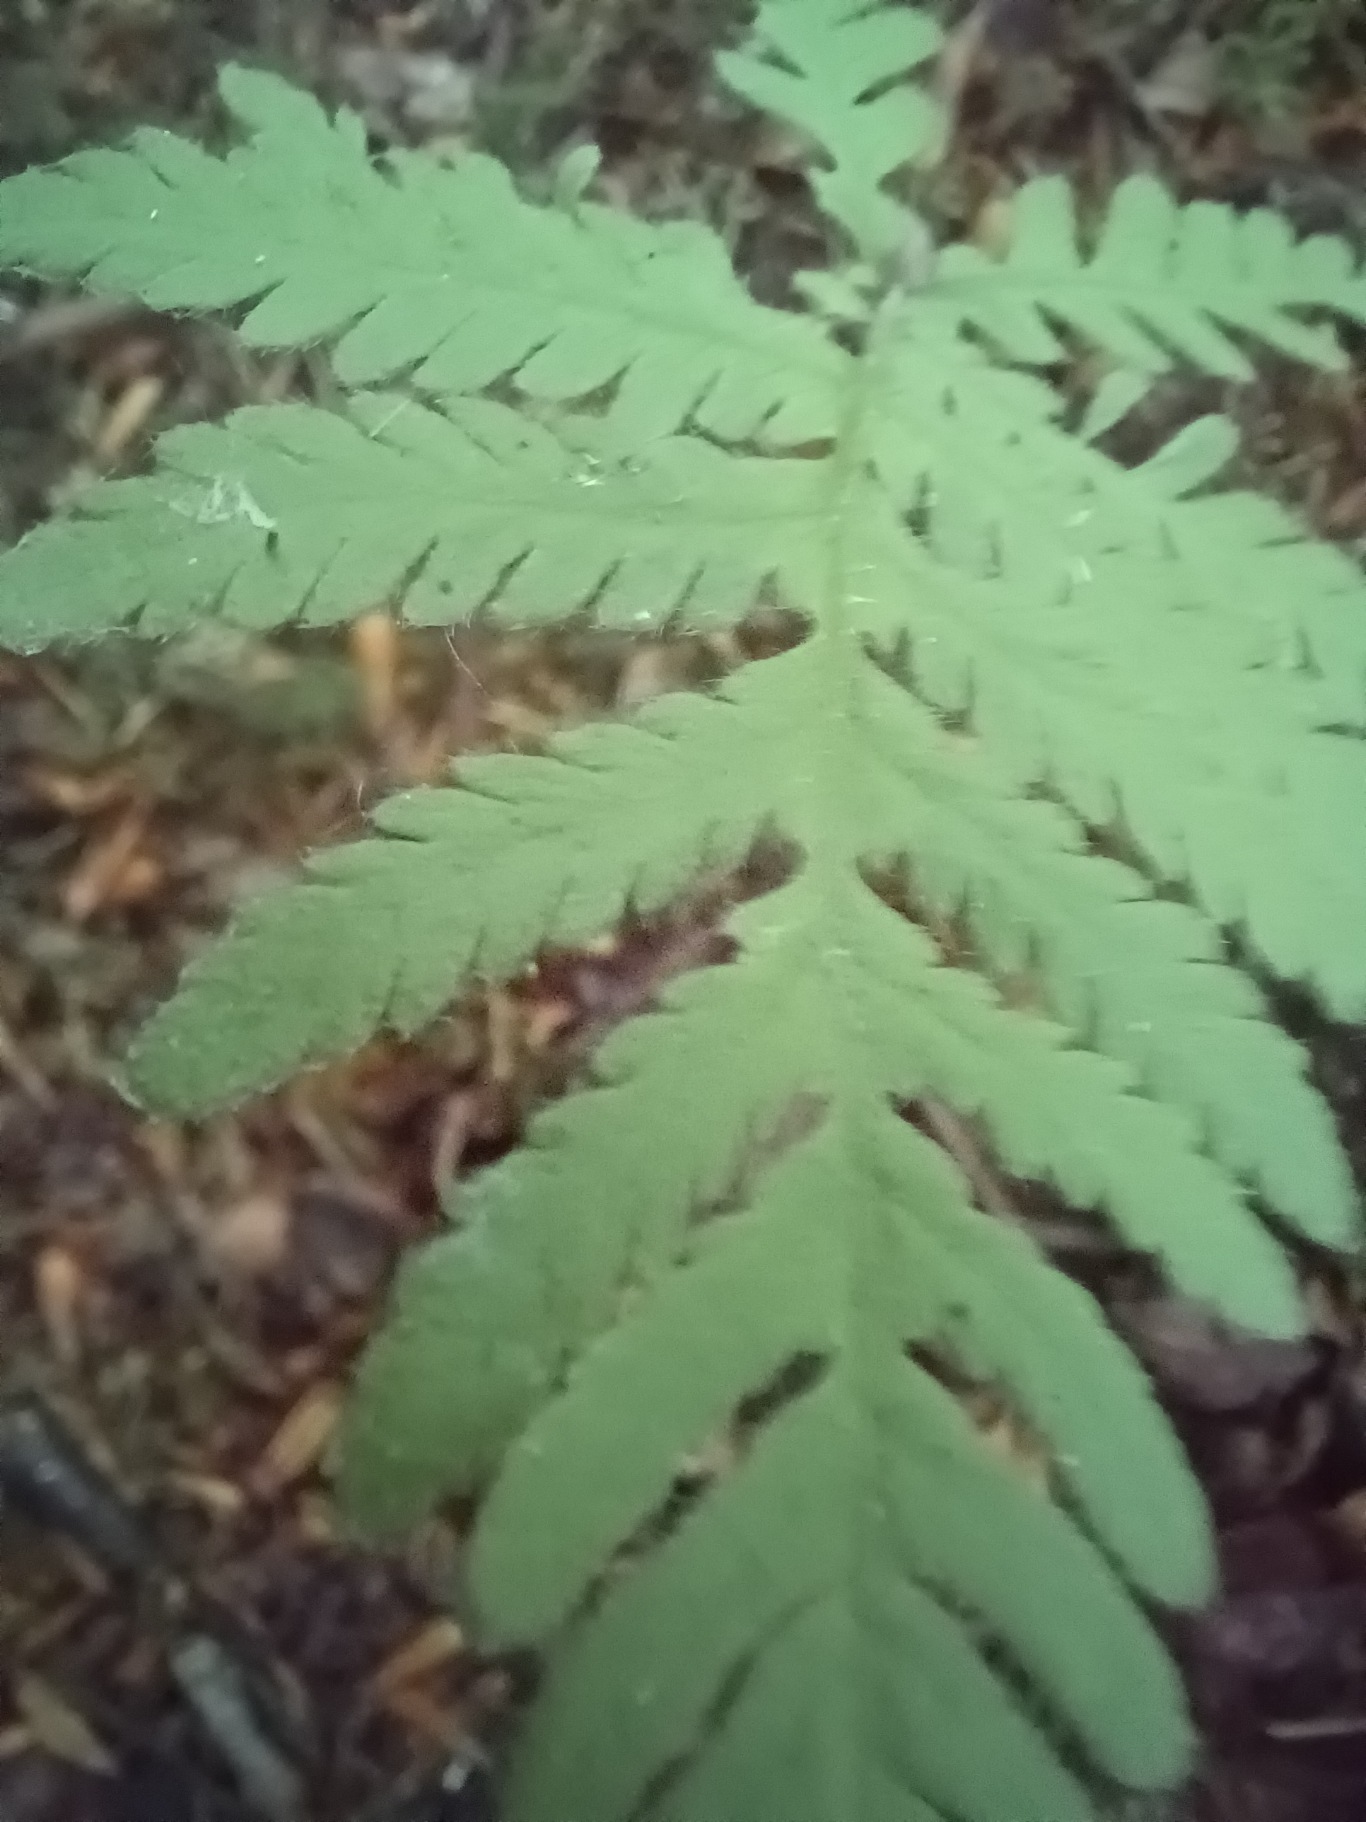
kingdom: Plantae
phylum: Tracheophyta
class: Polypodiopsida
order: Polypodiales
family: Thelypteridaceae
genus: Phegopteris
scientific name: Phegopteris connectilis
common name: Dunet egebregne
